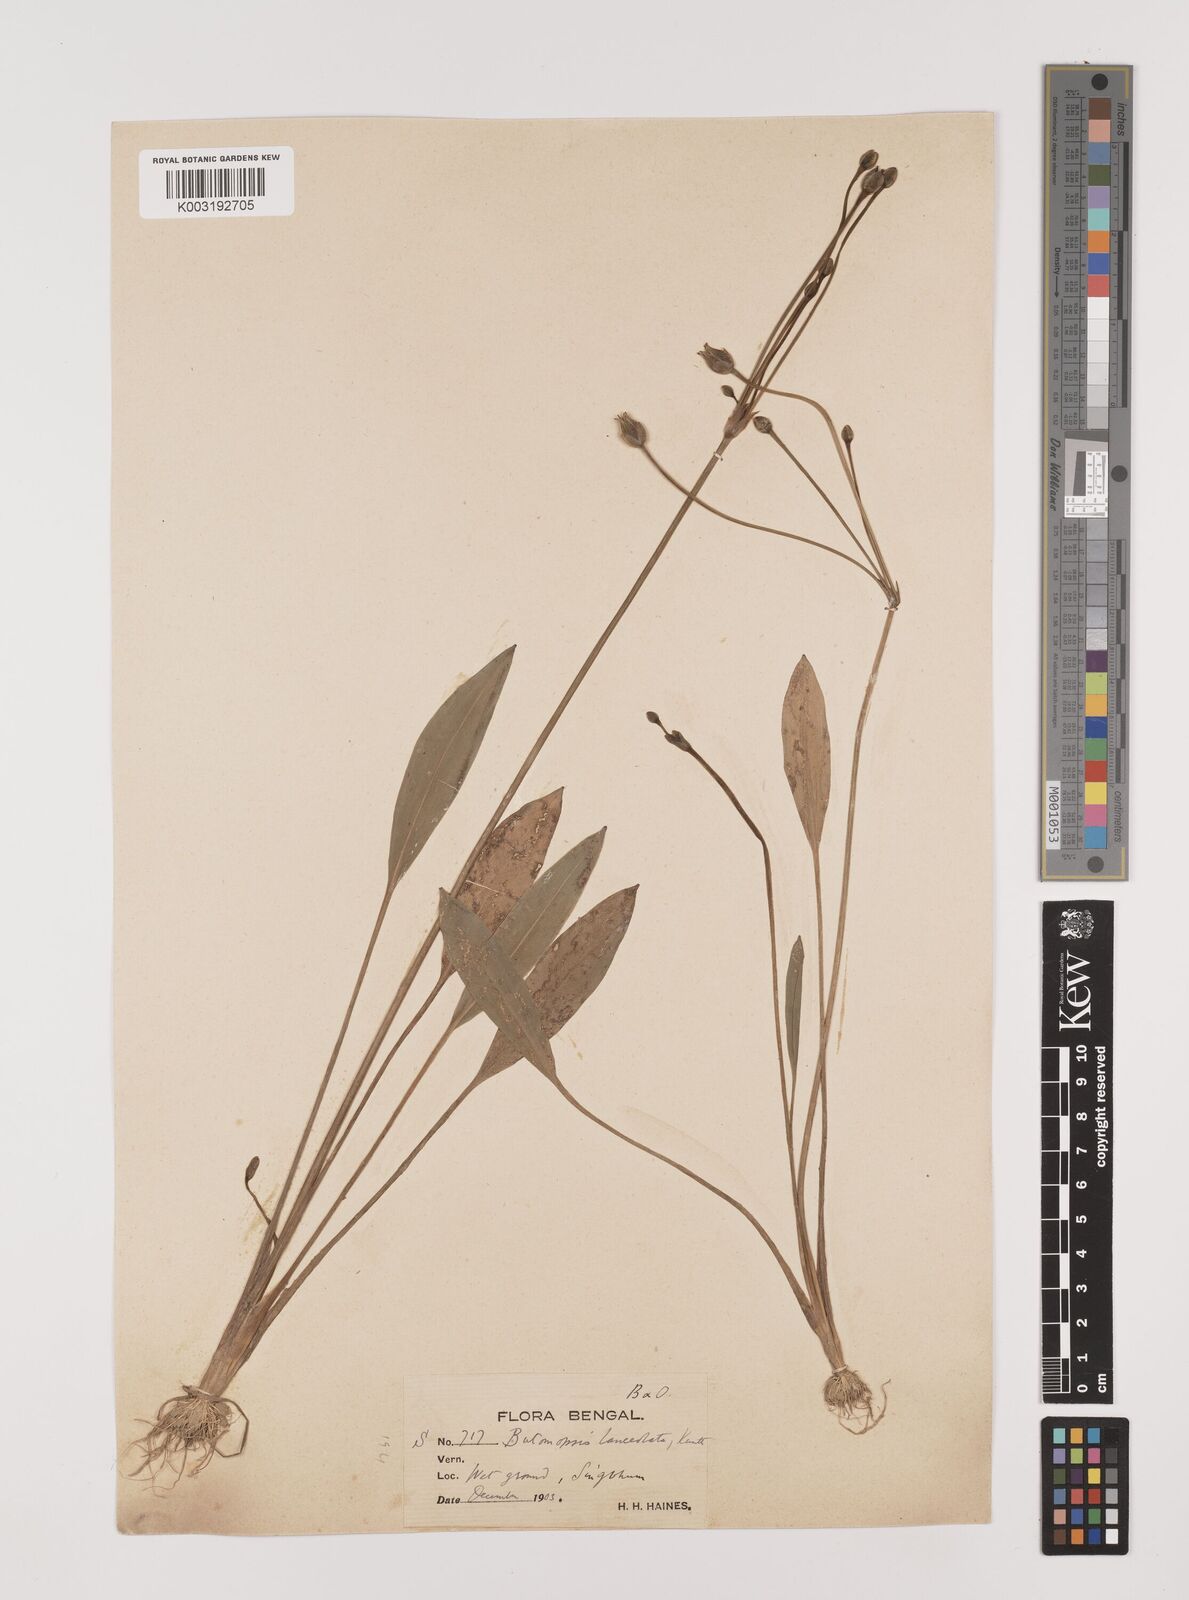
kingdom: Plantae
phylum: Tracheophyta
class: Liliopsida
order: Alismatales
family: Alismataceae
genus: Butomopsis
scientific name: Butomopsis latifolia
